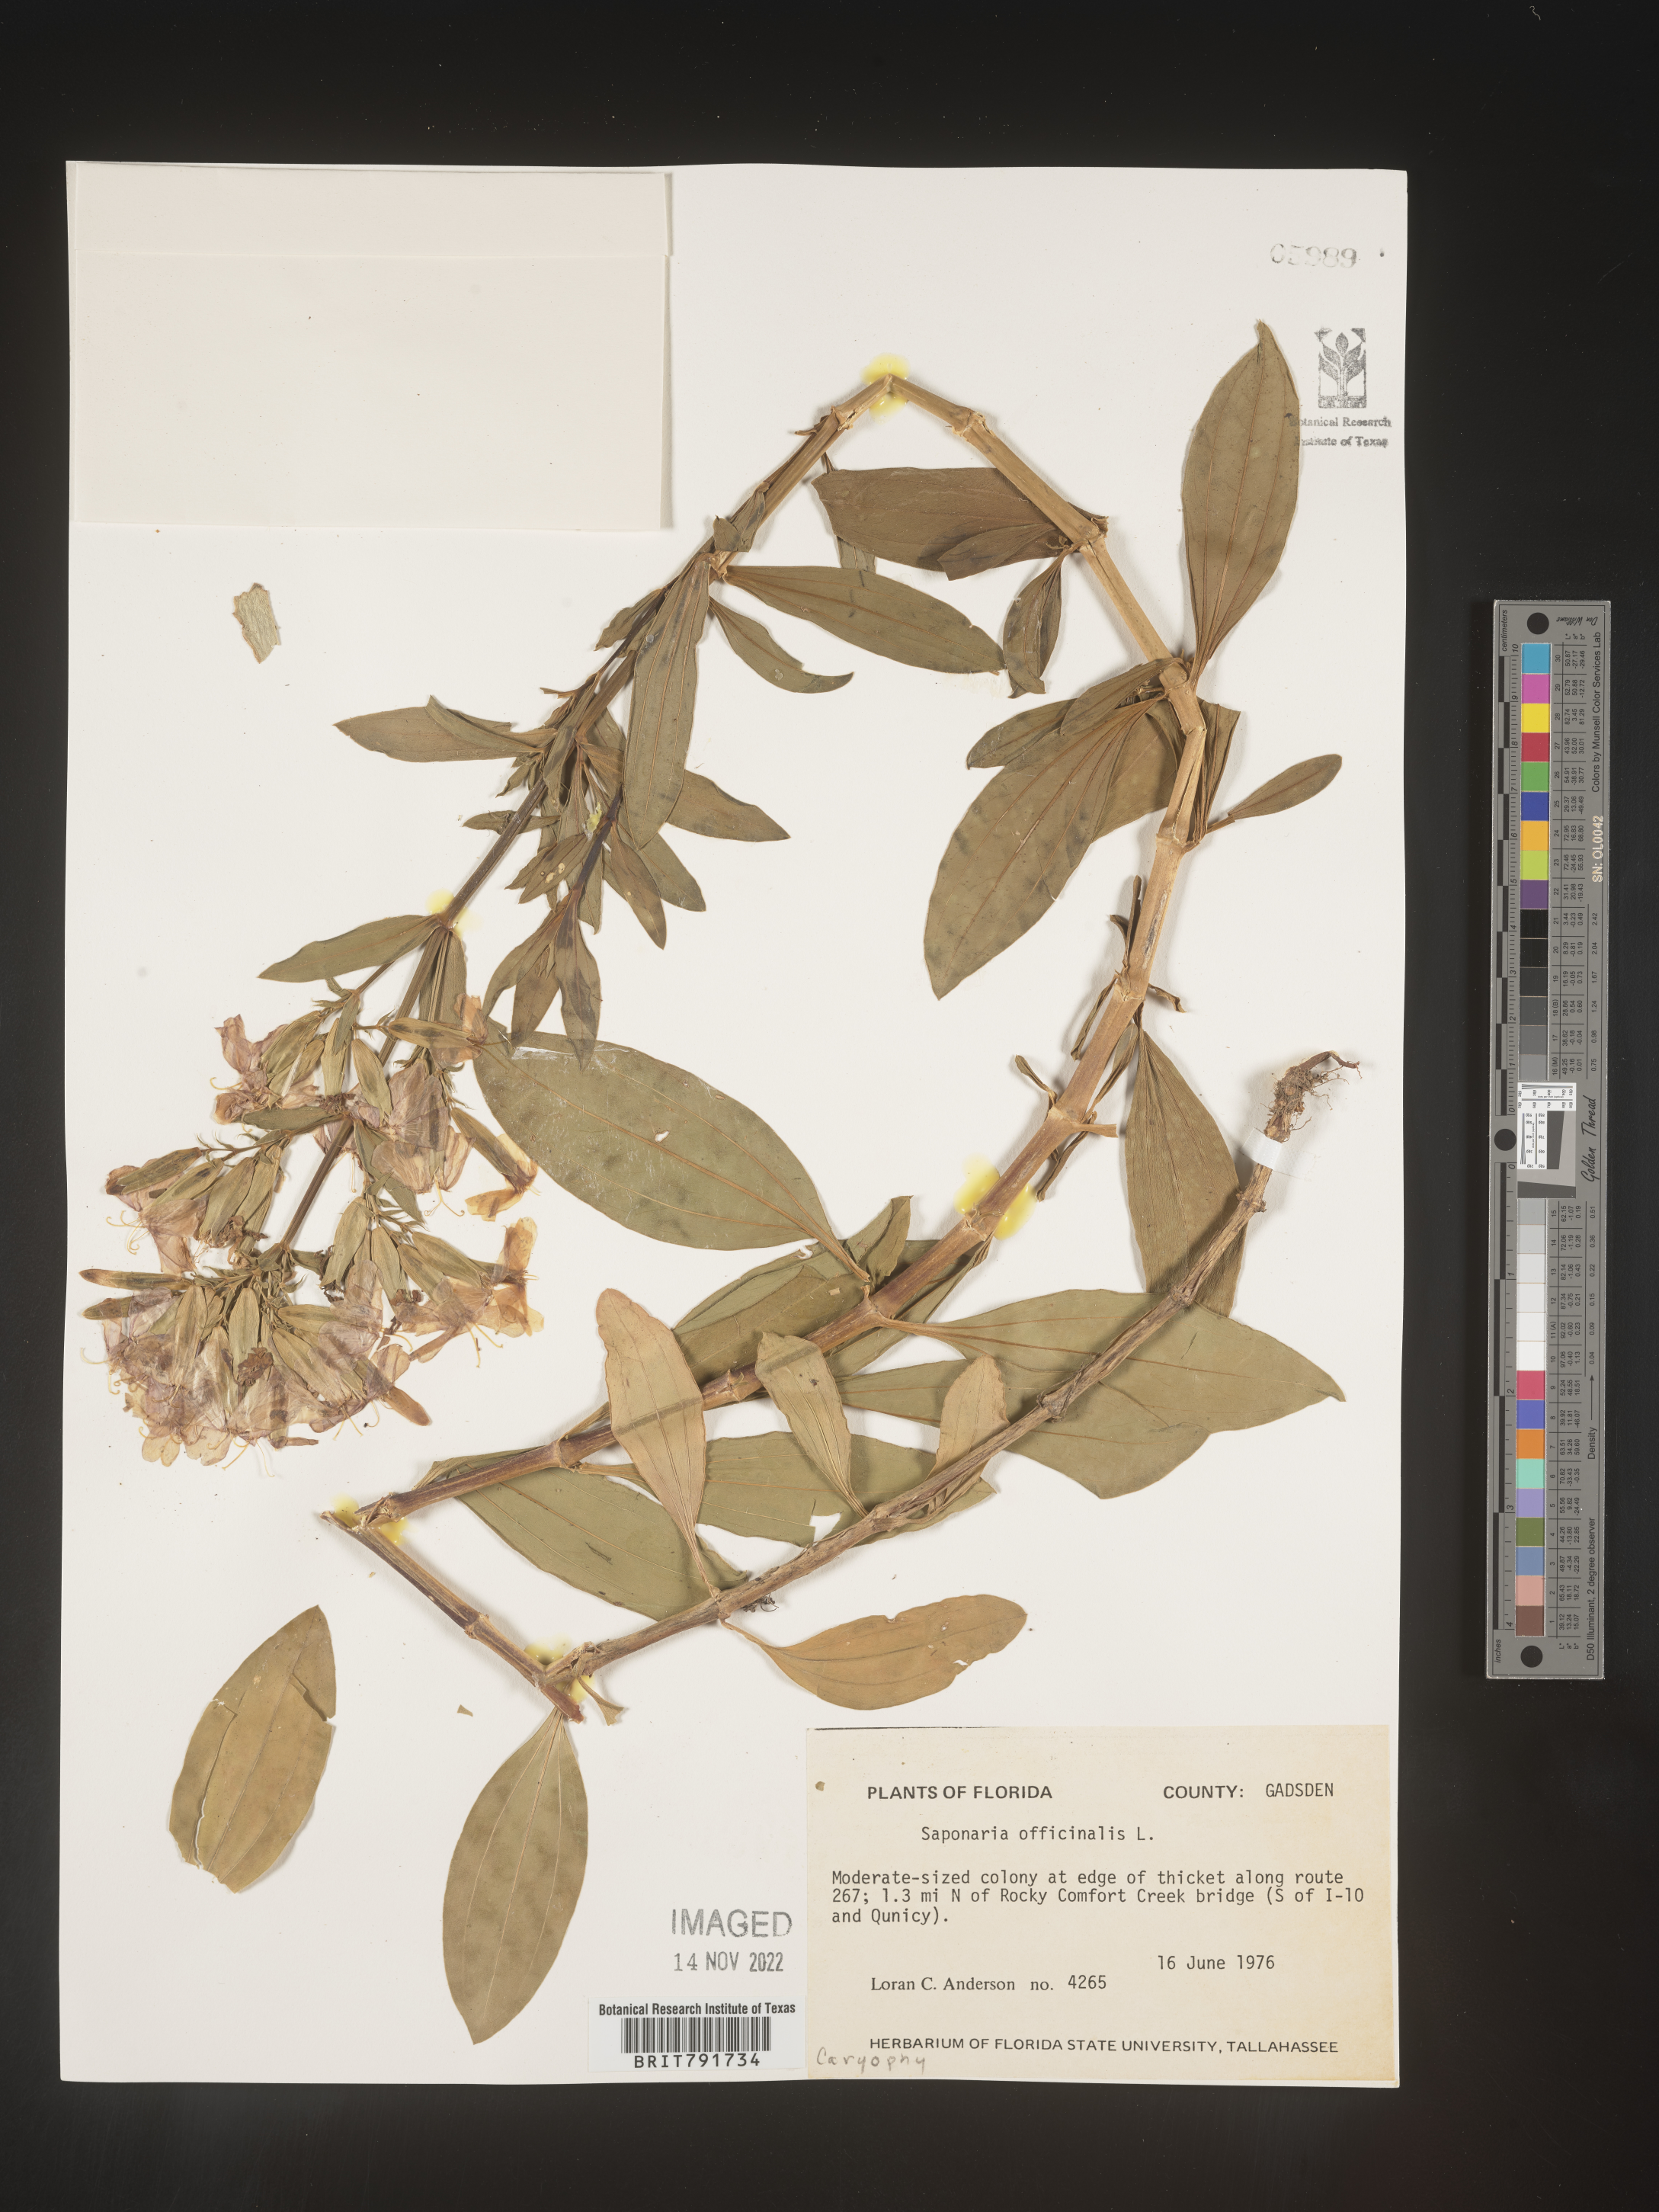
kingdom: Plantae
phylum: Tracheophyta
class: Magnoliopsida
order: Caryophyllales
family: Caryophyllaceae
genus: Saponaria
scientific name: Saponaria officinalis
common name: Soapwort
